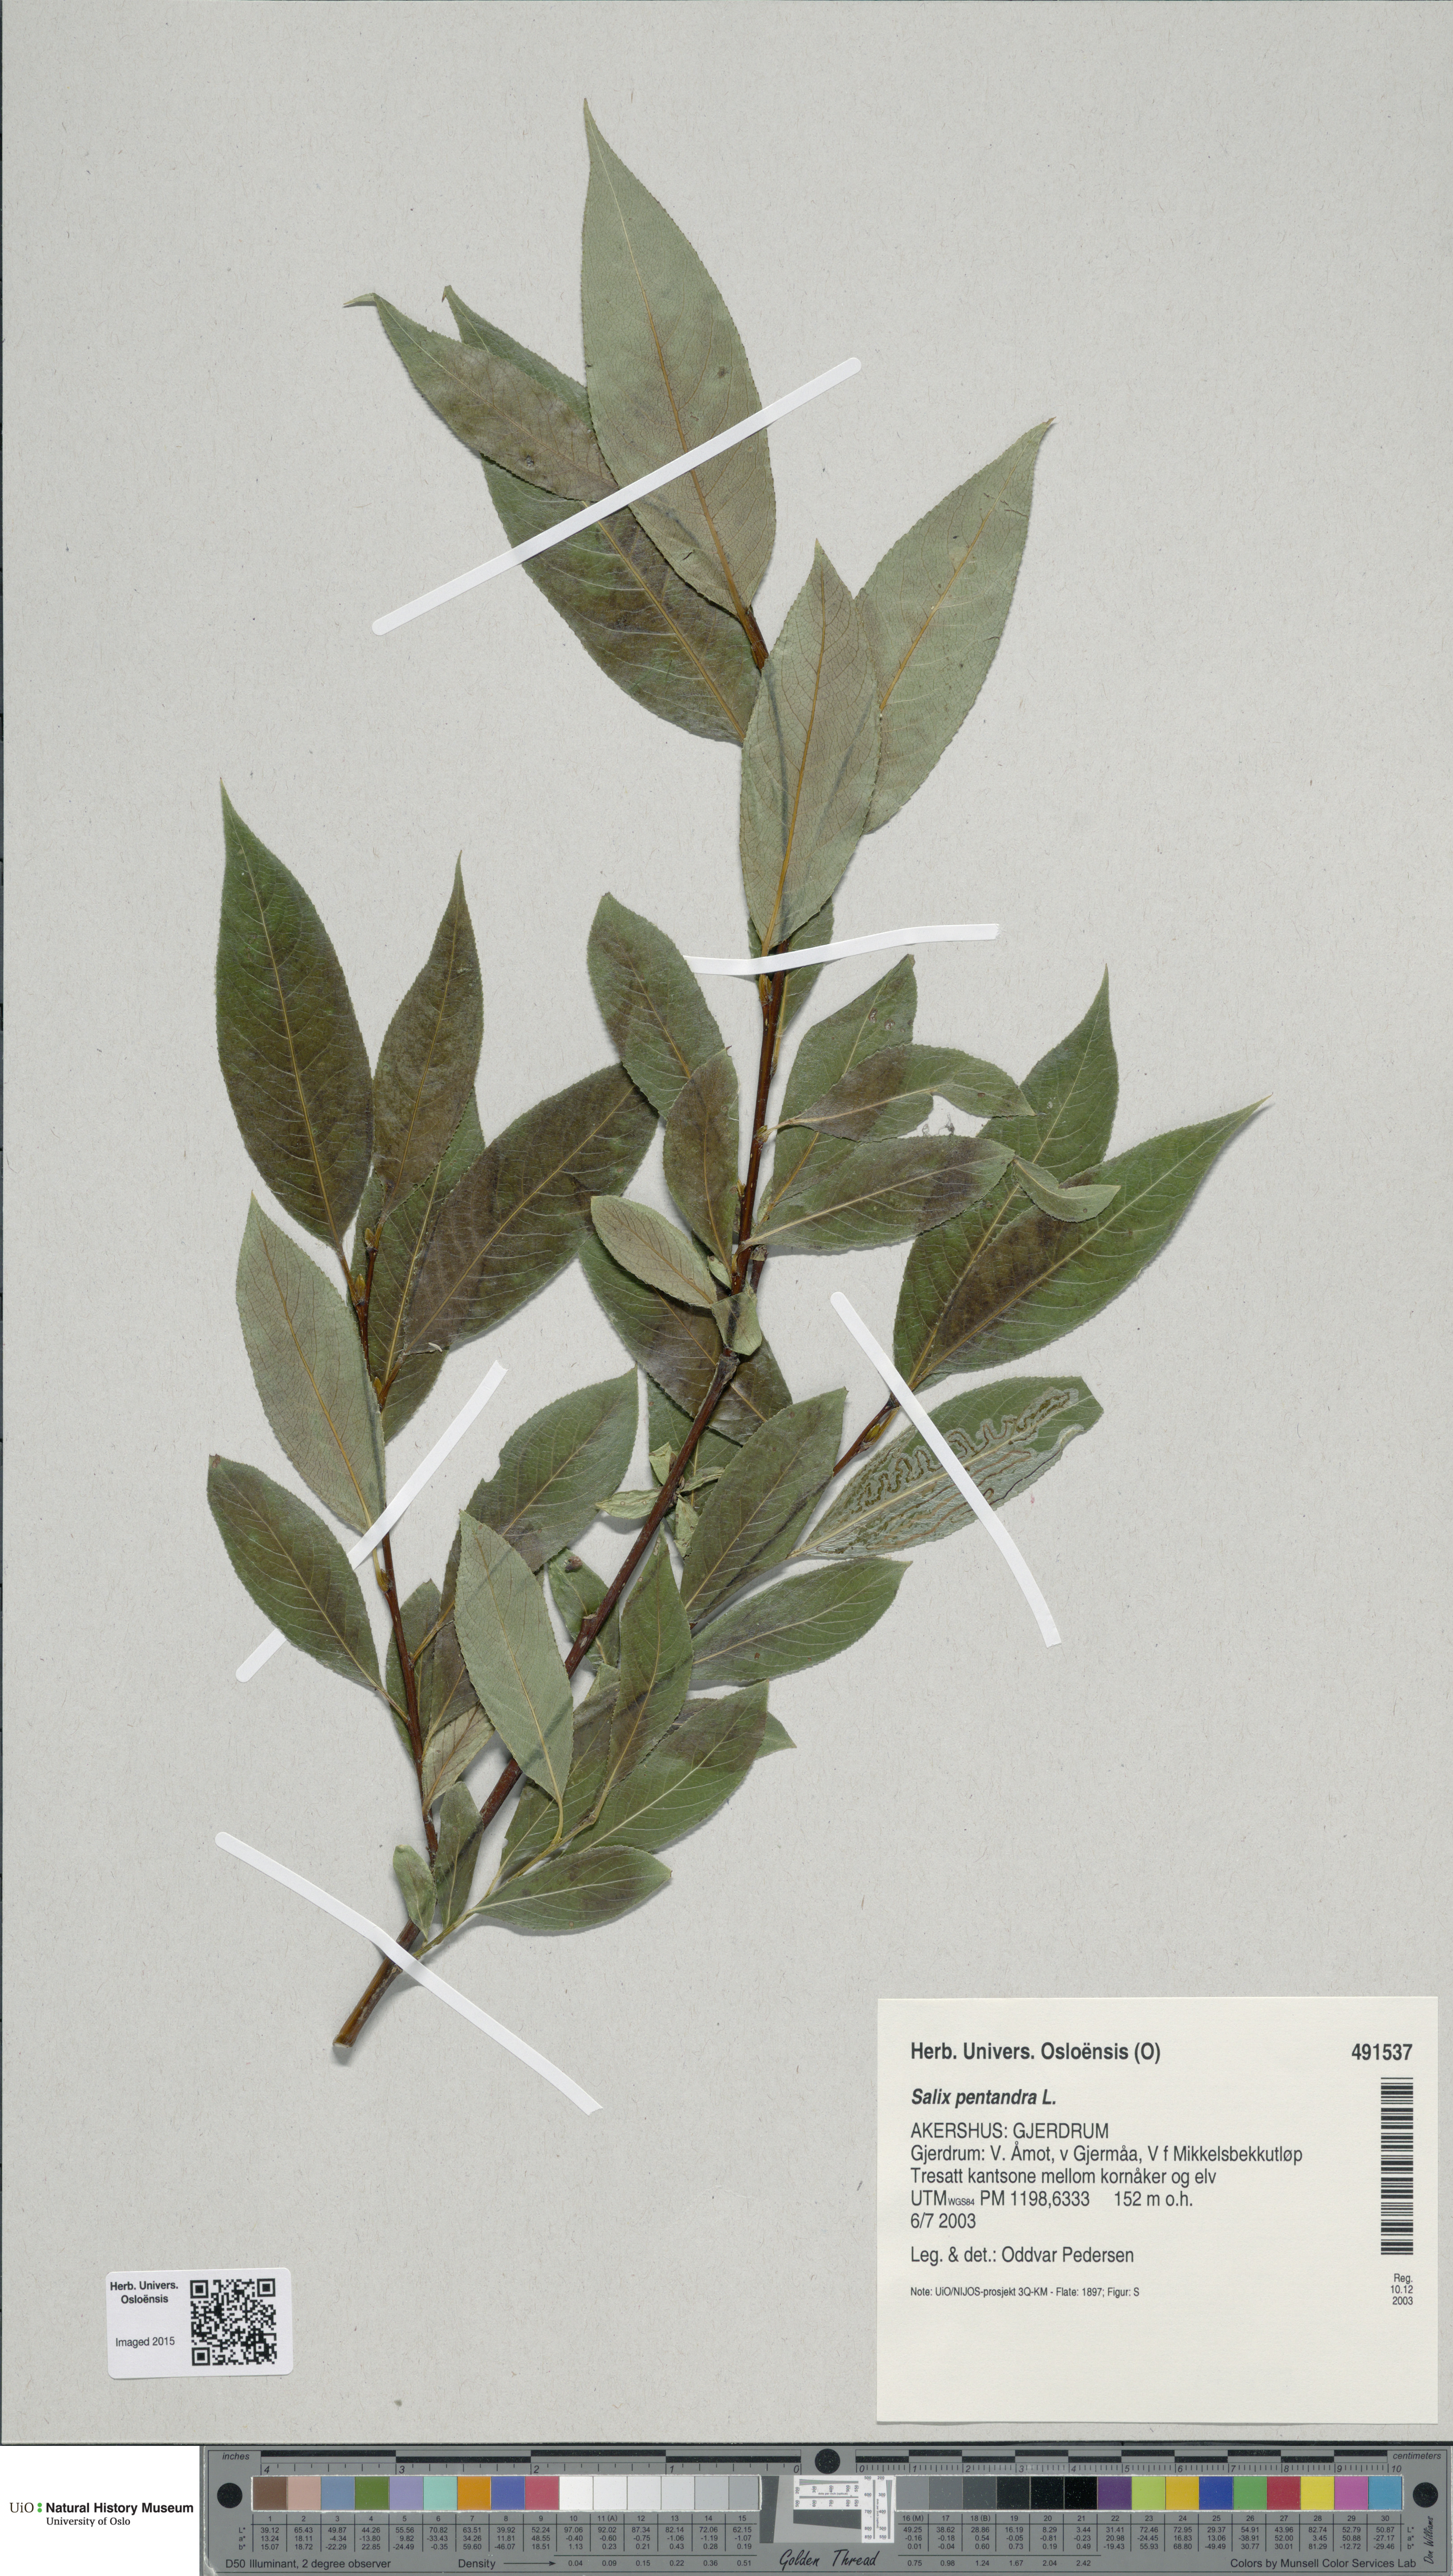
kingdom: Plantae
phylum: Tracheophyta
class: Magnoliopsida
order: Malpighiales
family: Salicaceae
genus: Salix
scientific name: Salix pentandra
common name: Bay willow
